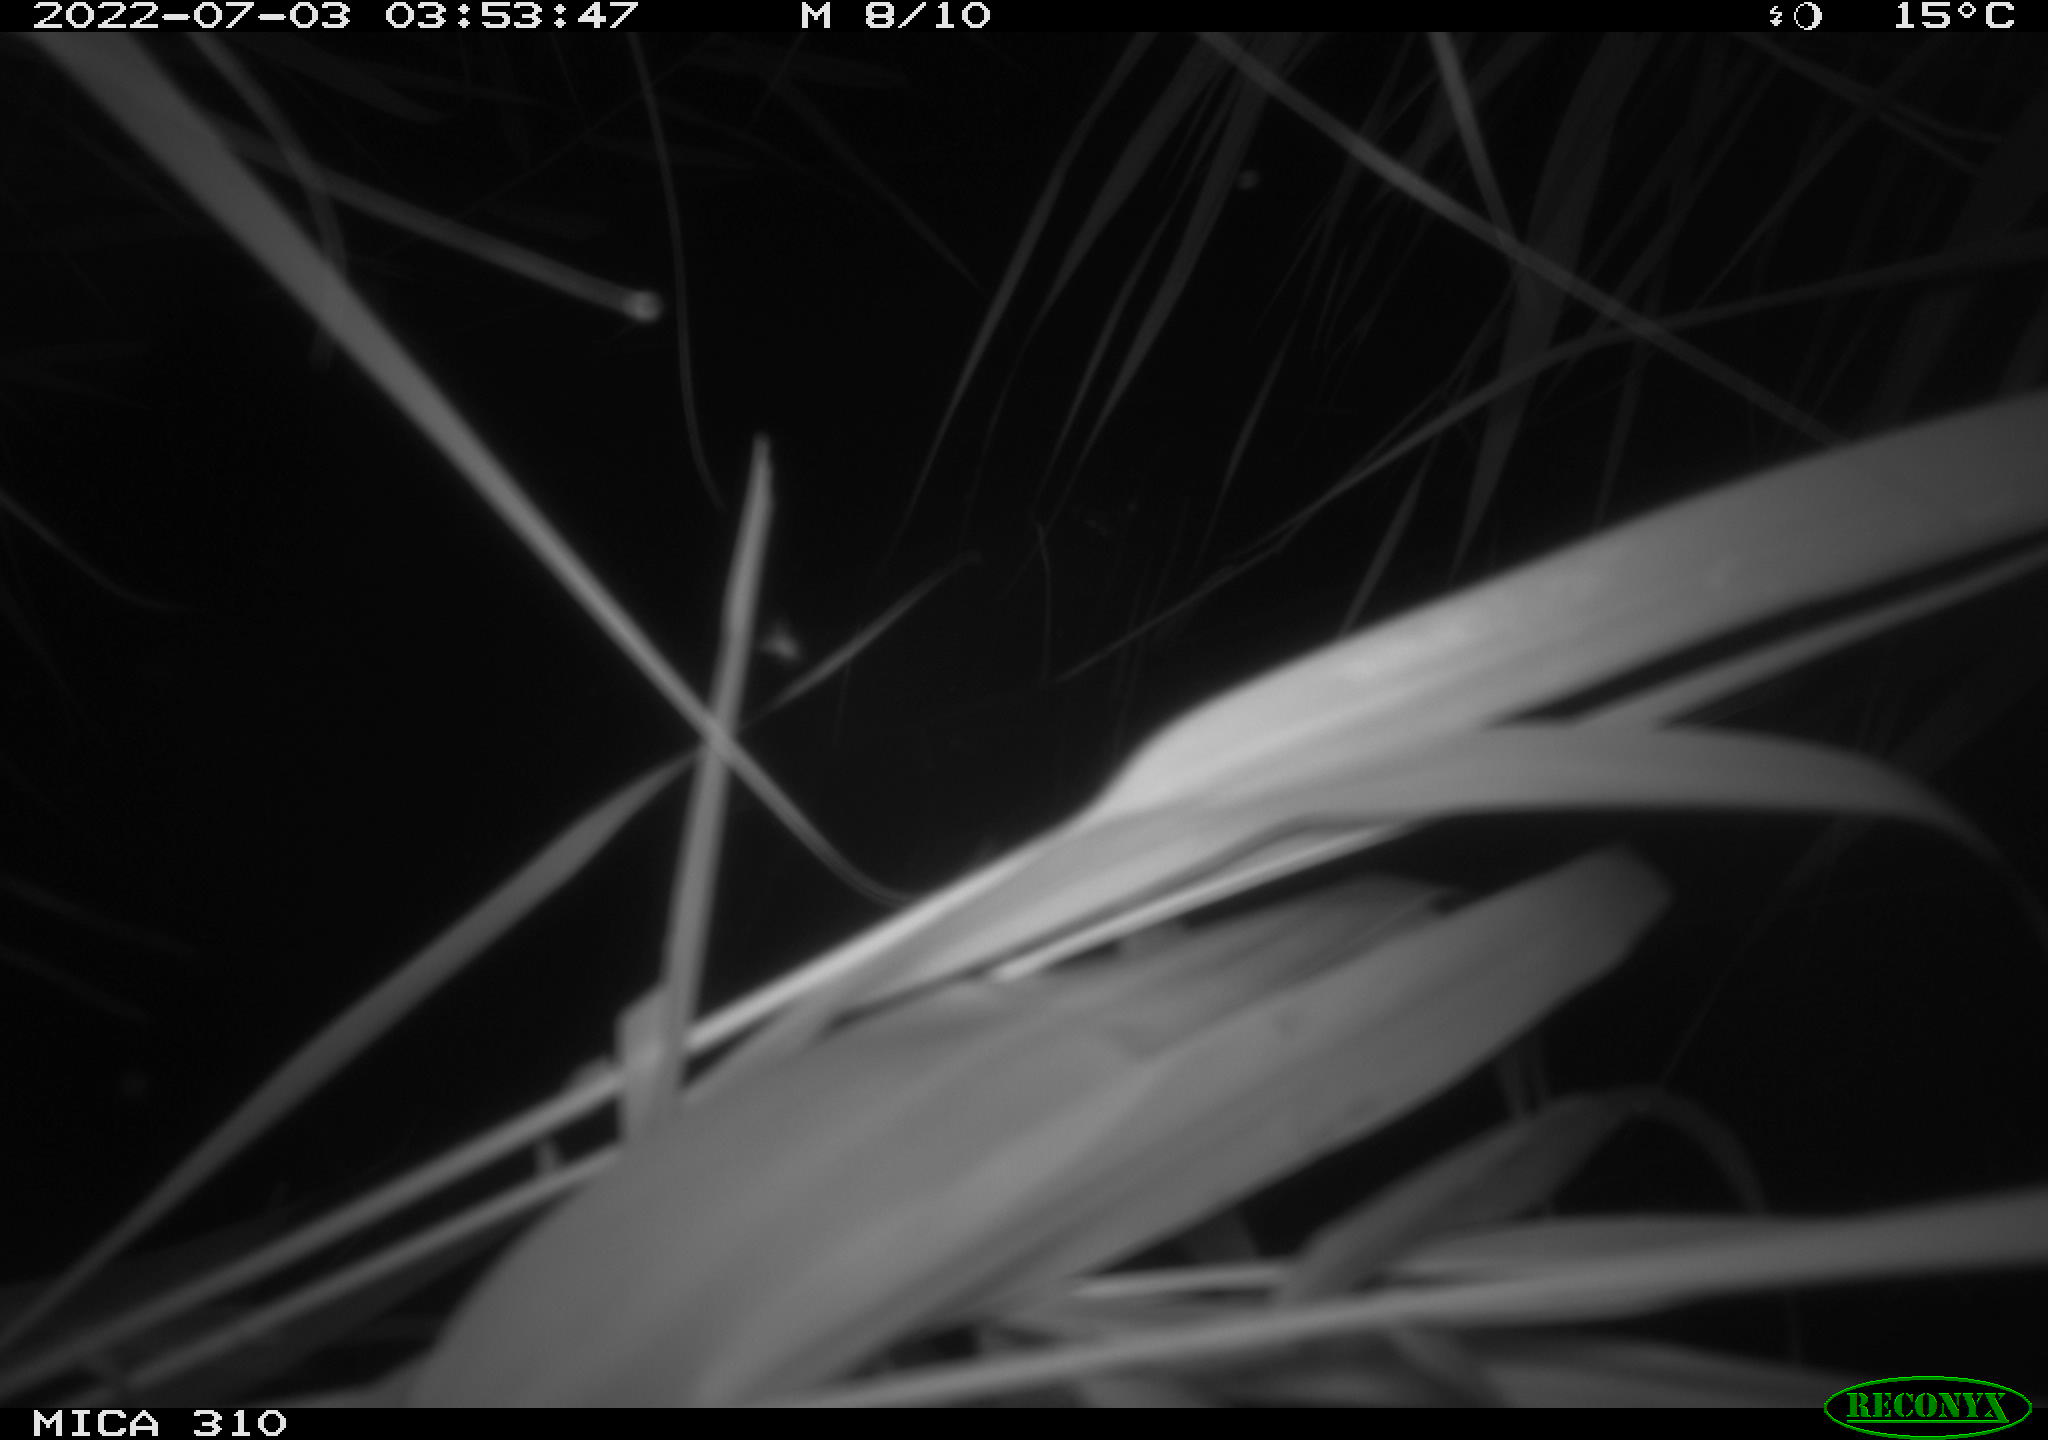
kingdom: Animalia
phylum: Chordata
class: Aves
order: Anseriformes
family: Anatidae
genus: Anas
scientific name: Anas platyrhynchos
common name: Mallard
